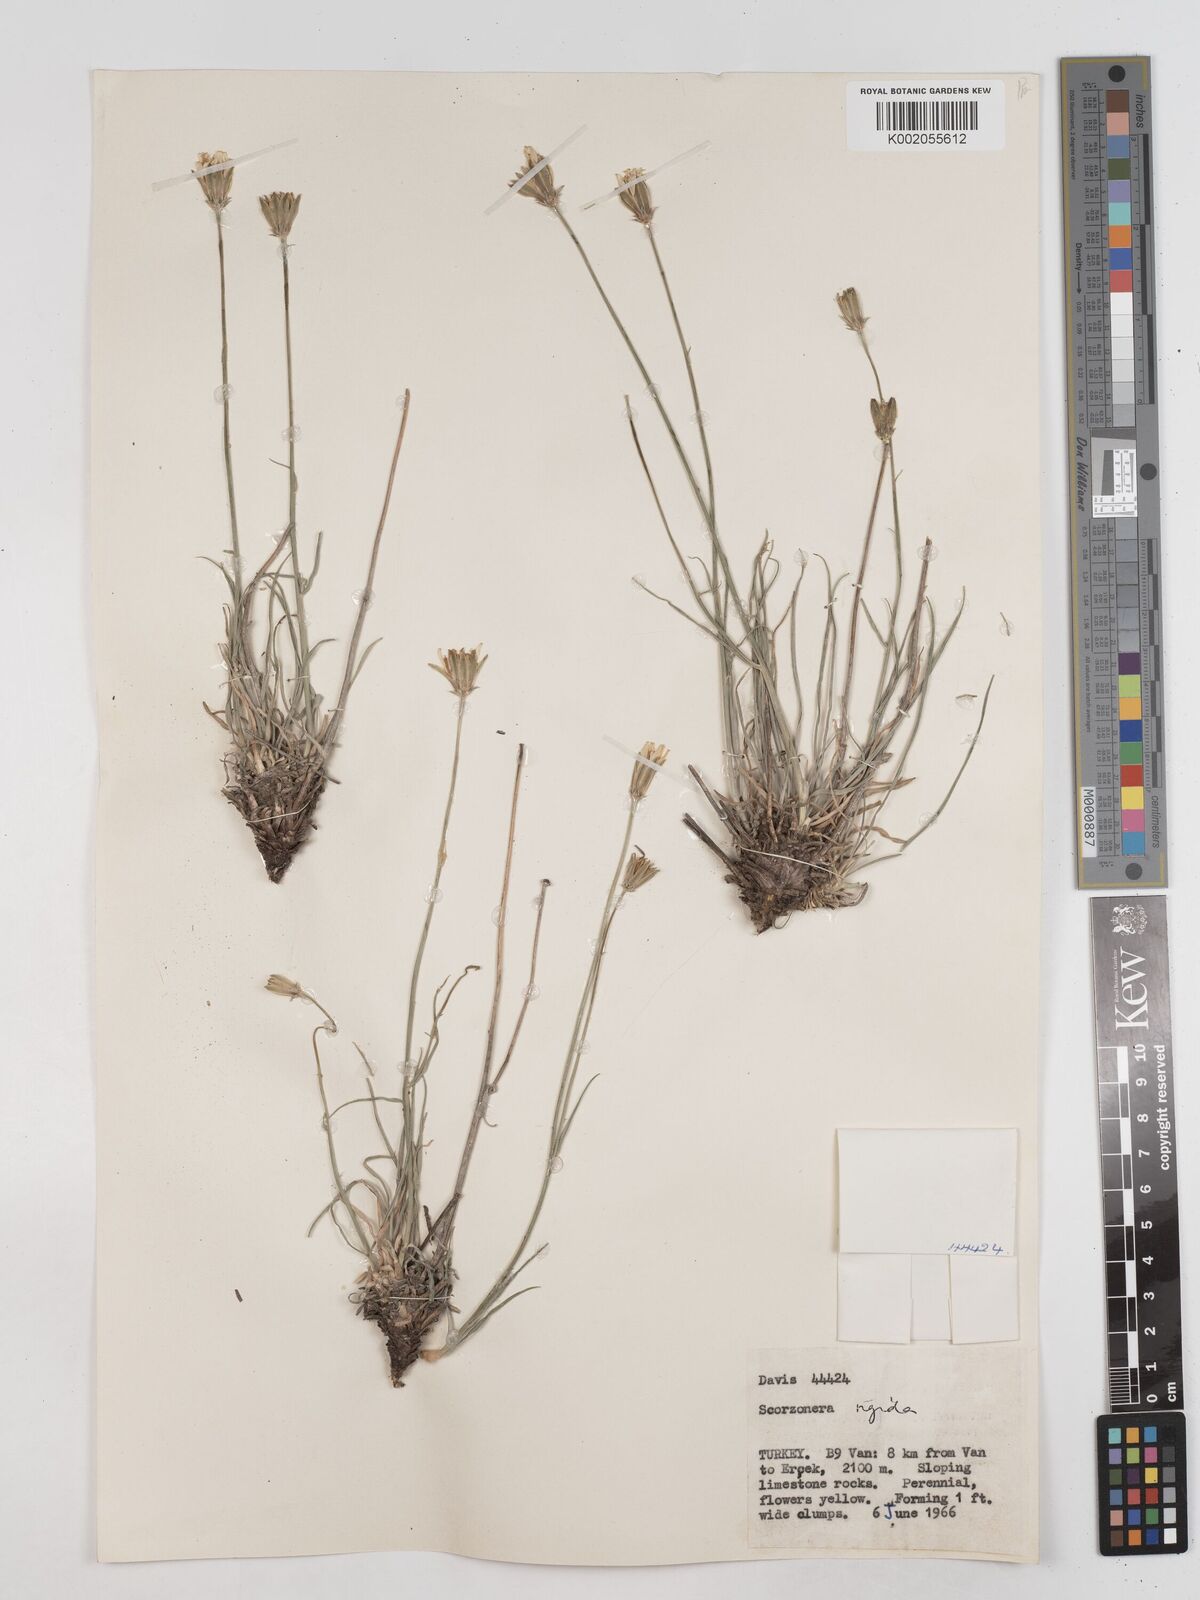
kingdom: Plantae
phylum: Tracheophyta
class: Magnoliopsida
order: Asterales
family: Asteraceae
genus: Scorzonera
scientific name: Scorzonera
